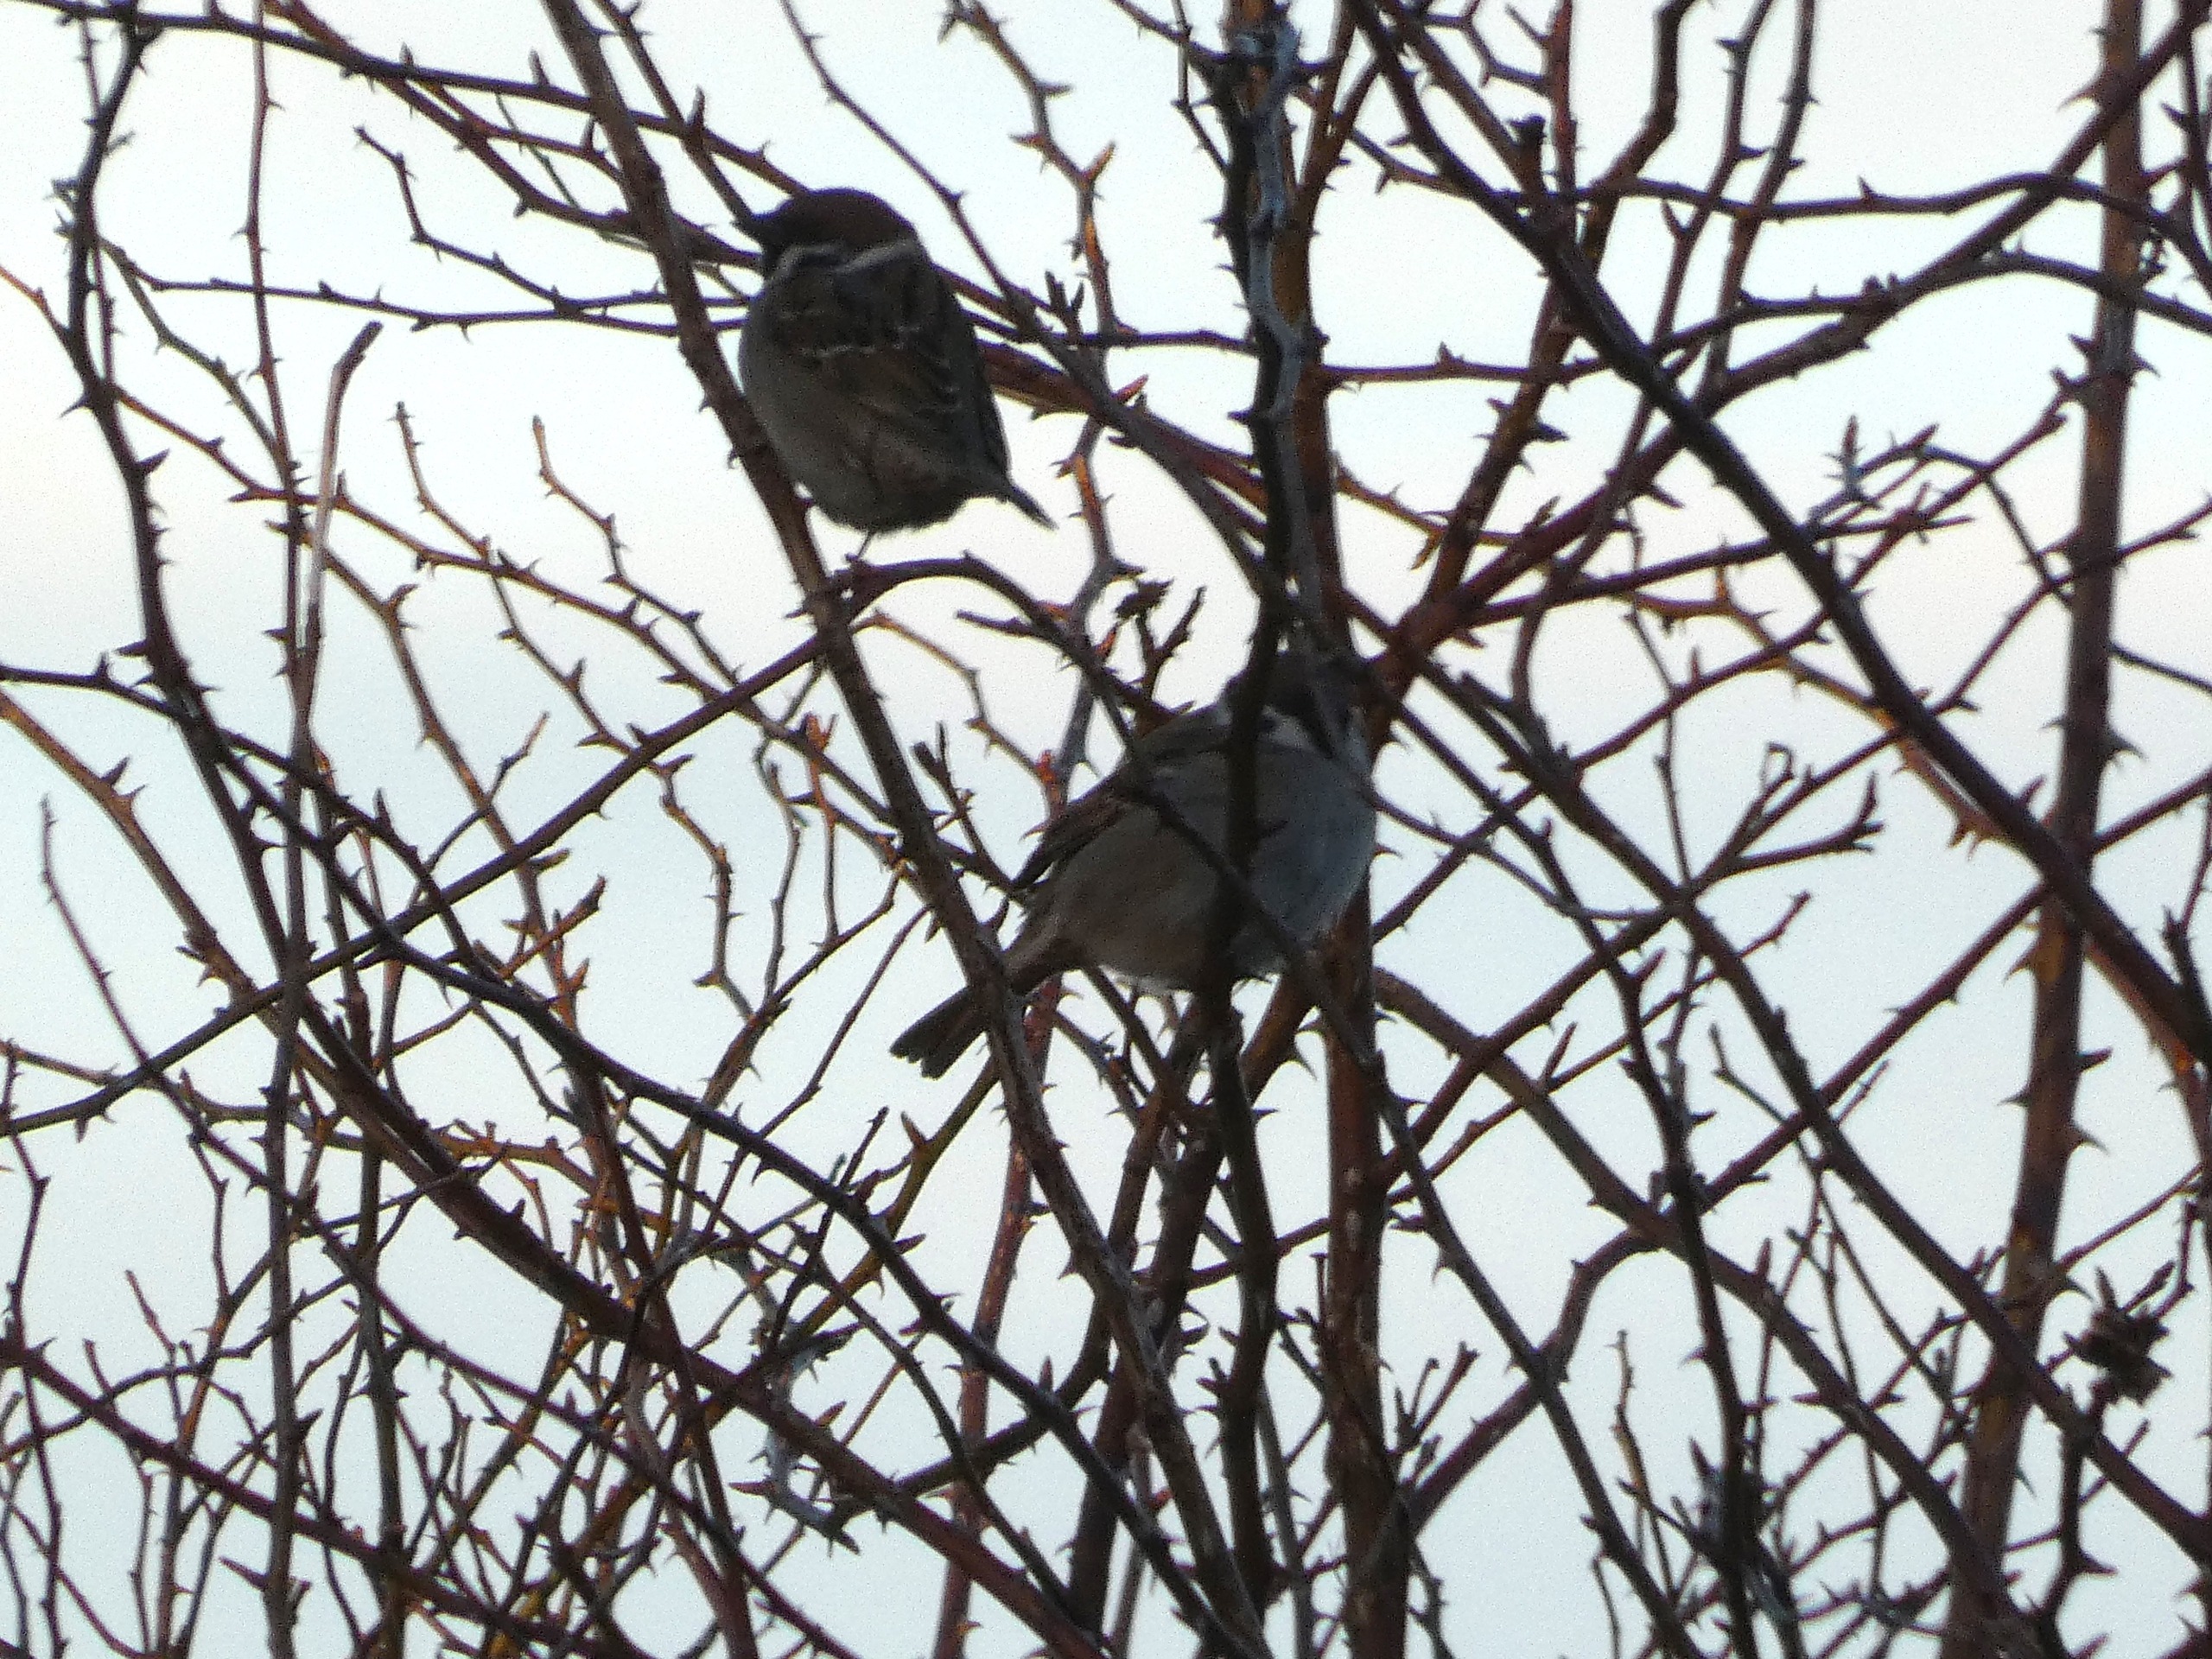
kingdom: Animalia
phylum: Chordata
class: Aves
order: Passeriformes
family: Passeridae
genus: Passer
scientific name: Passer montanus
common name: Skovspurv
